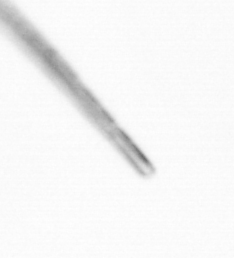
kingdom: Chromista
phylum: Ochrophyta
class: Bacillariophyceae
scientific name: Bacillariophyceae
